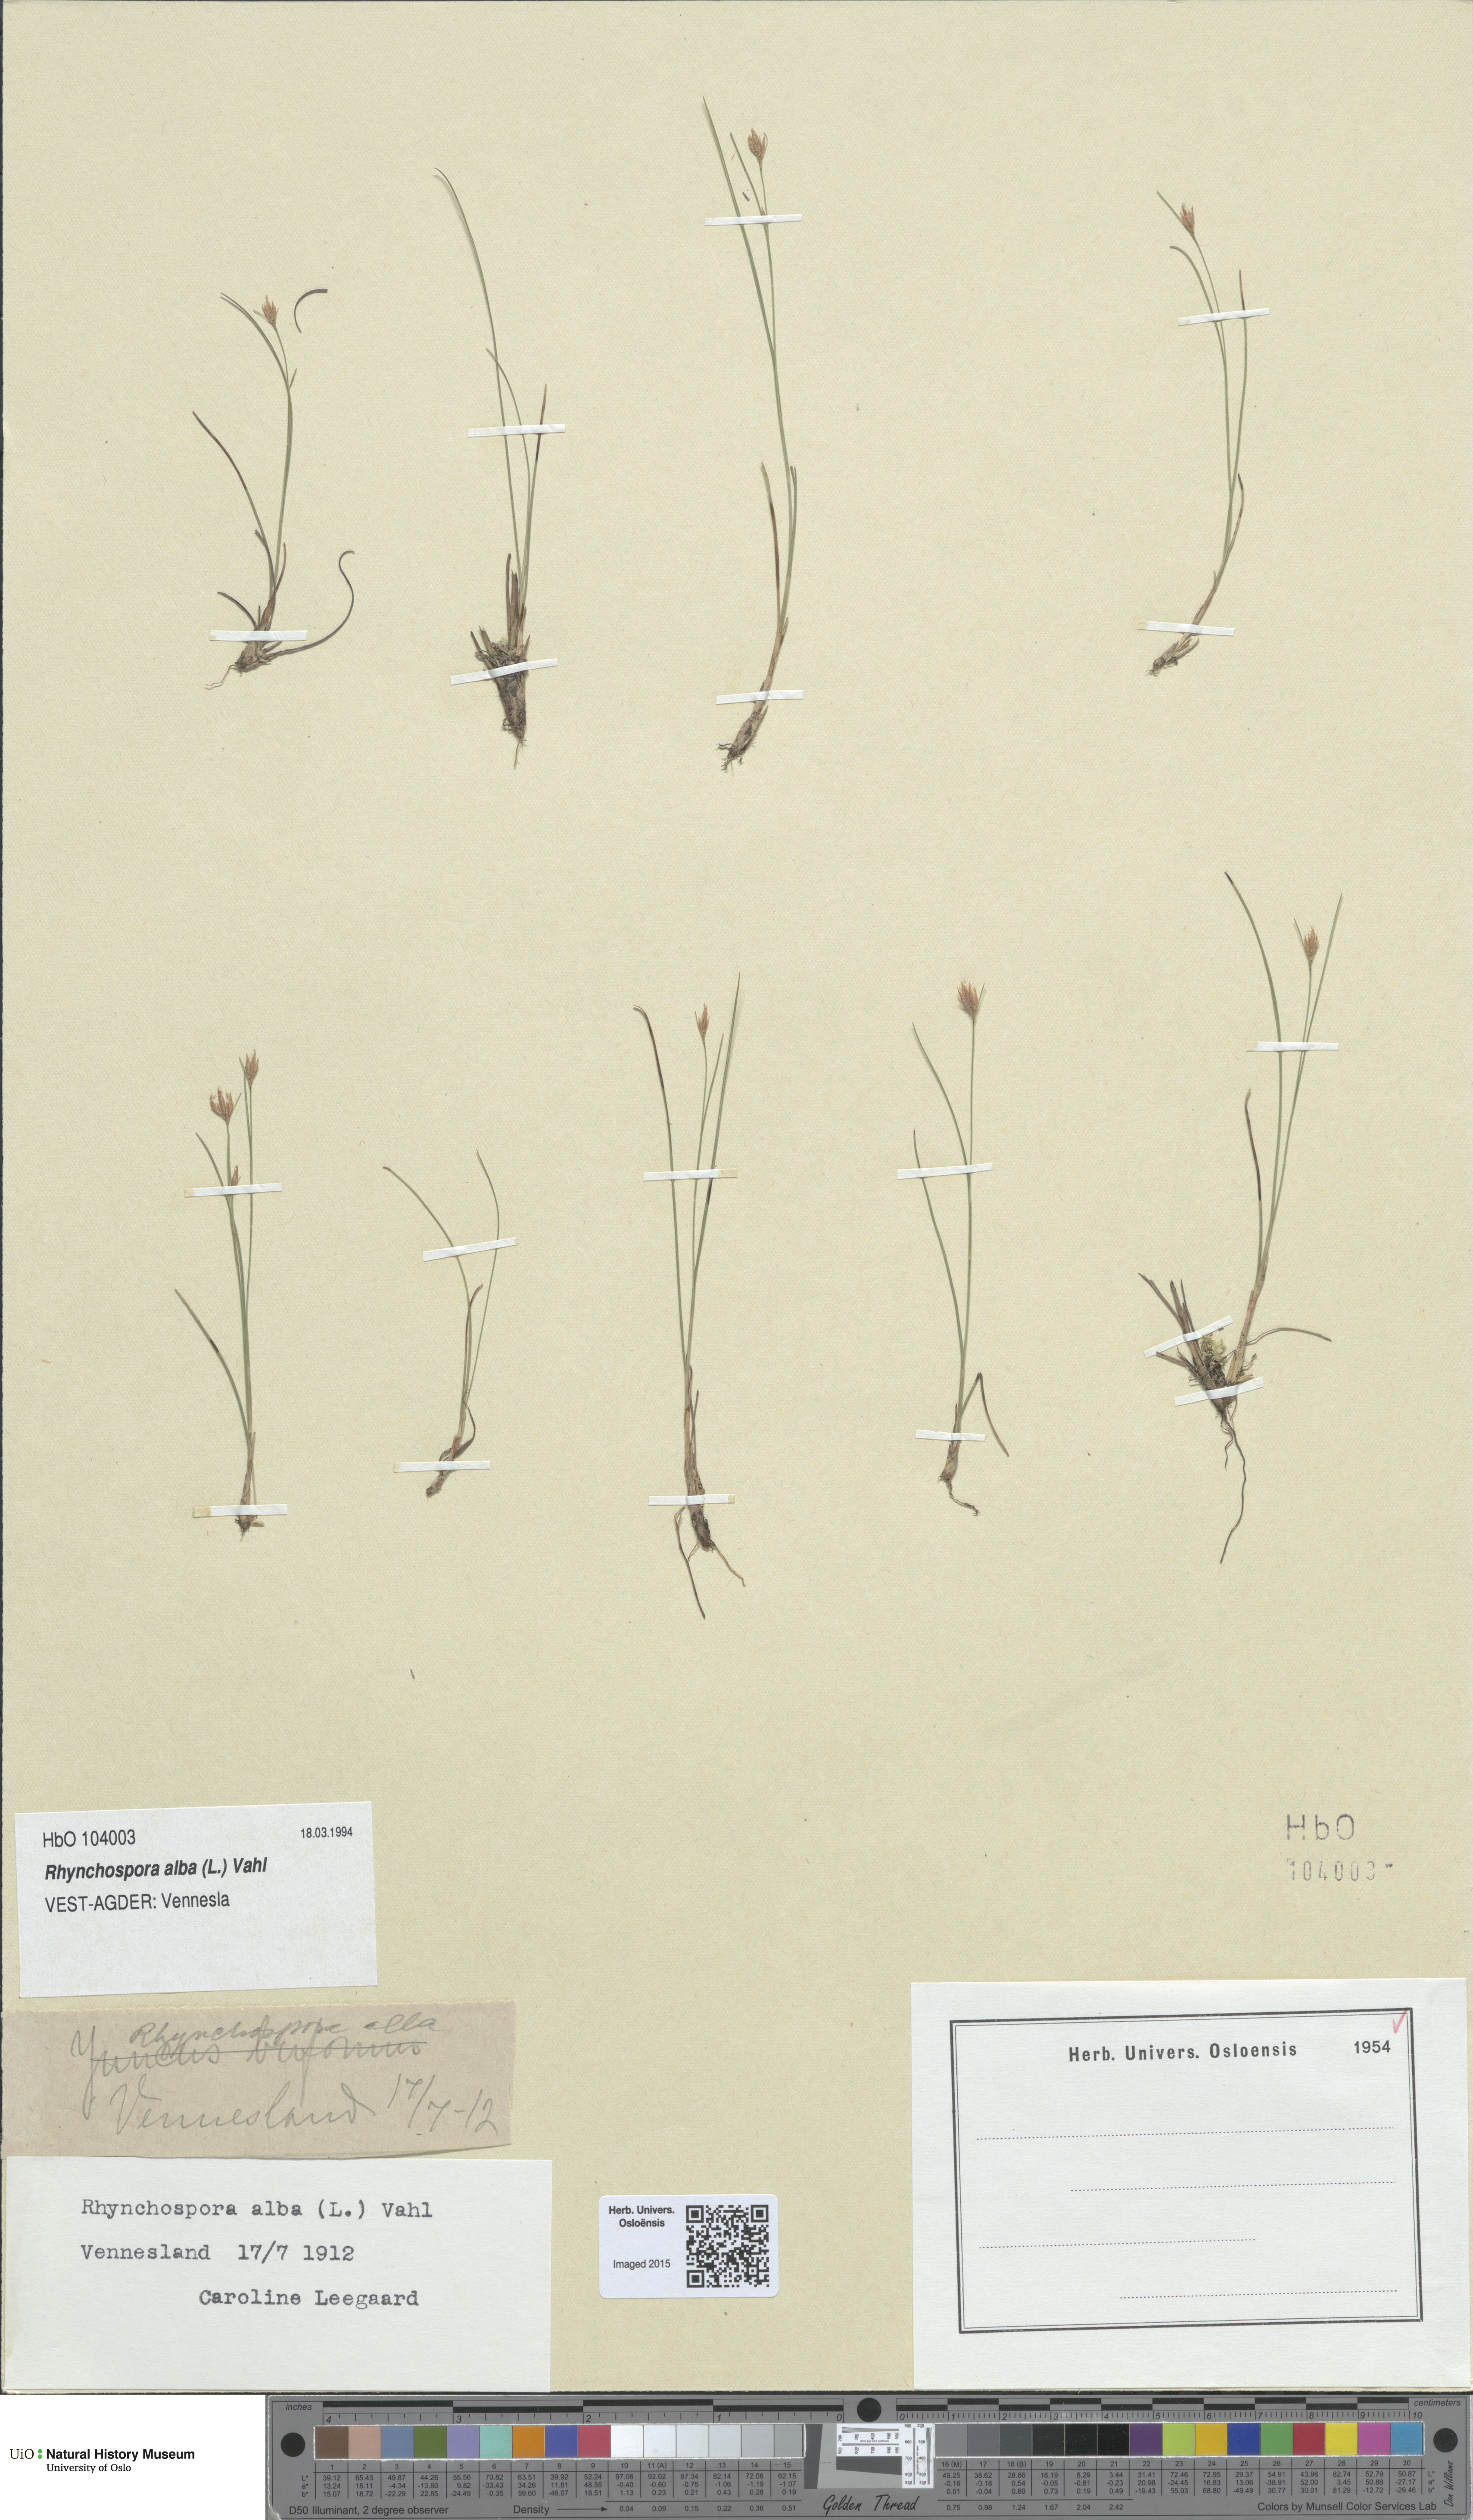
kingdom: Plantae
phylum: Tracheophyta
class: Liliopsida
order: Poales
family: Cyperaceae
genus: Rhynchospora
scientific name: Rhynchospora alba
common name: White beak-sedge
